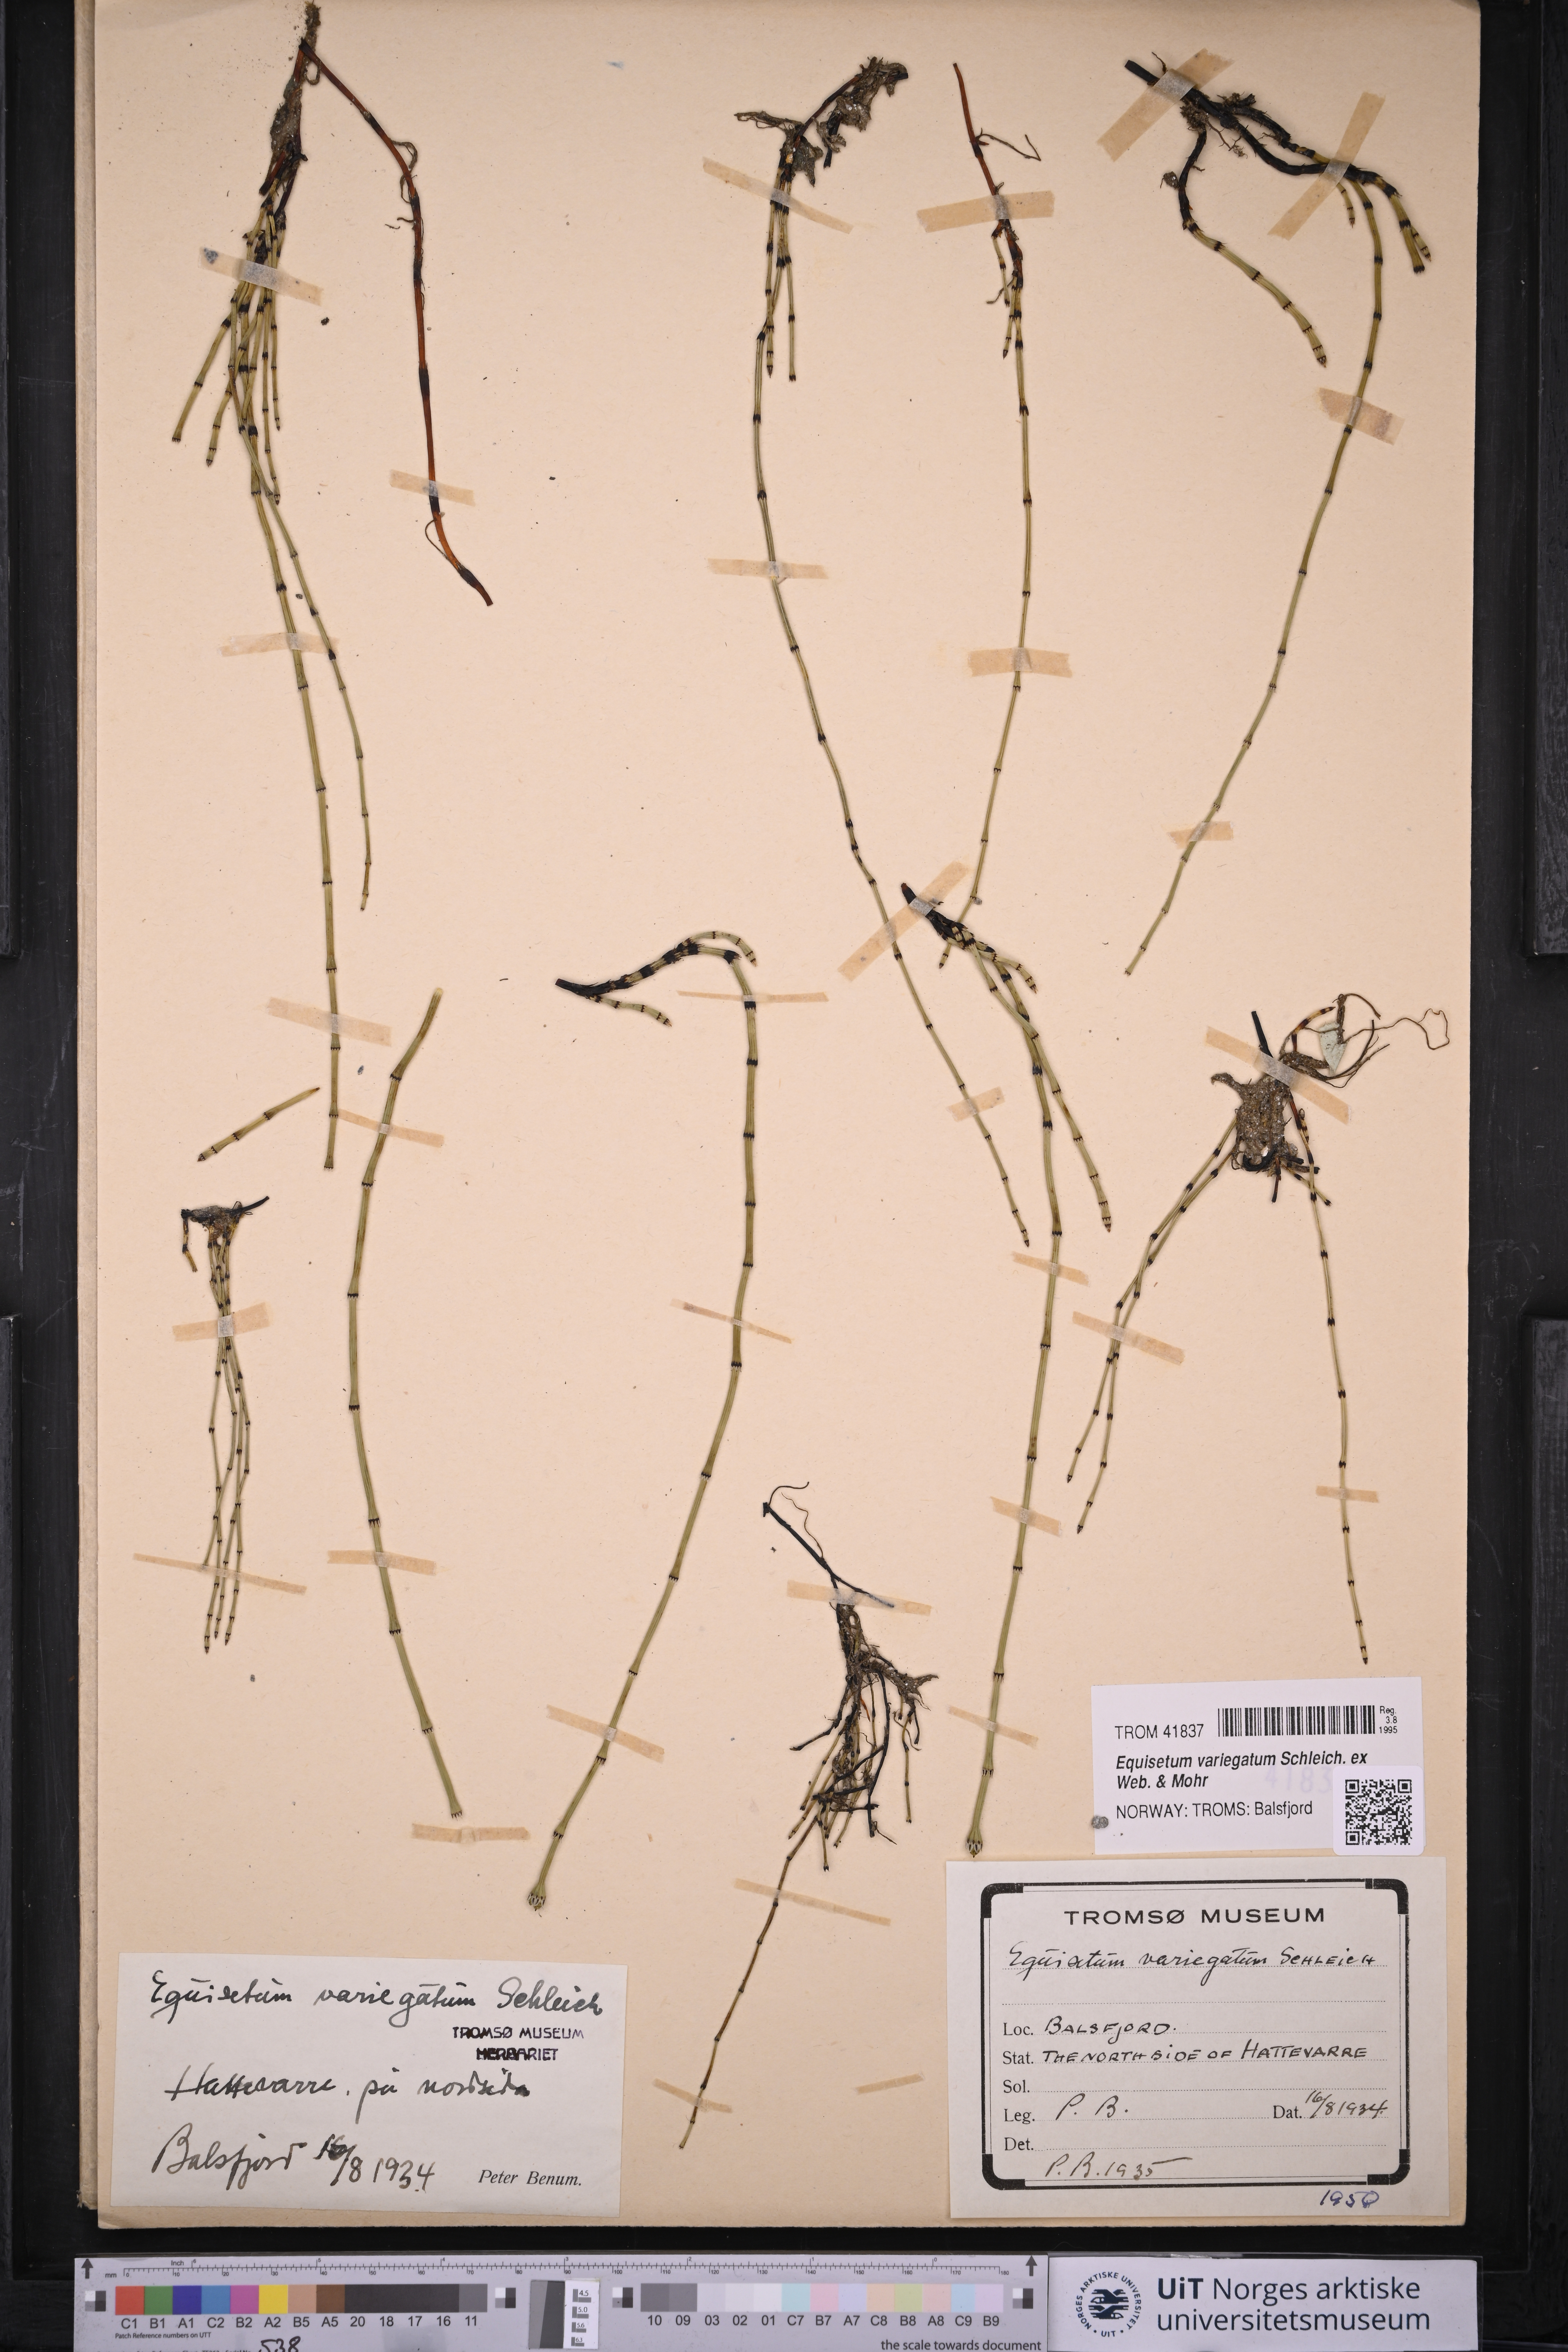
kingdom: Plantae
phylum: Tracheophyta
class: Polypodiopsida
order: Equisetales
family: Equisetaceae
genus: Equisetum
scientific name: Equisetum variegatum
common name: Variegated horsetail
